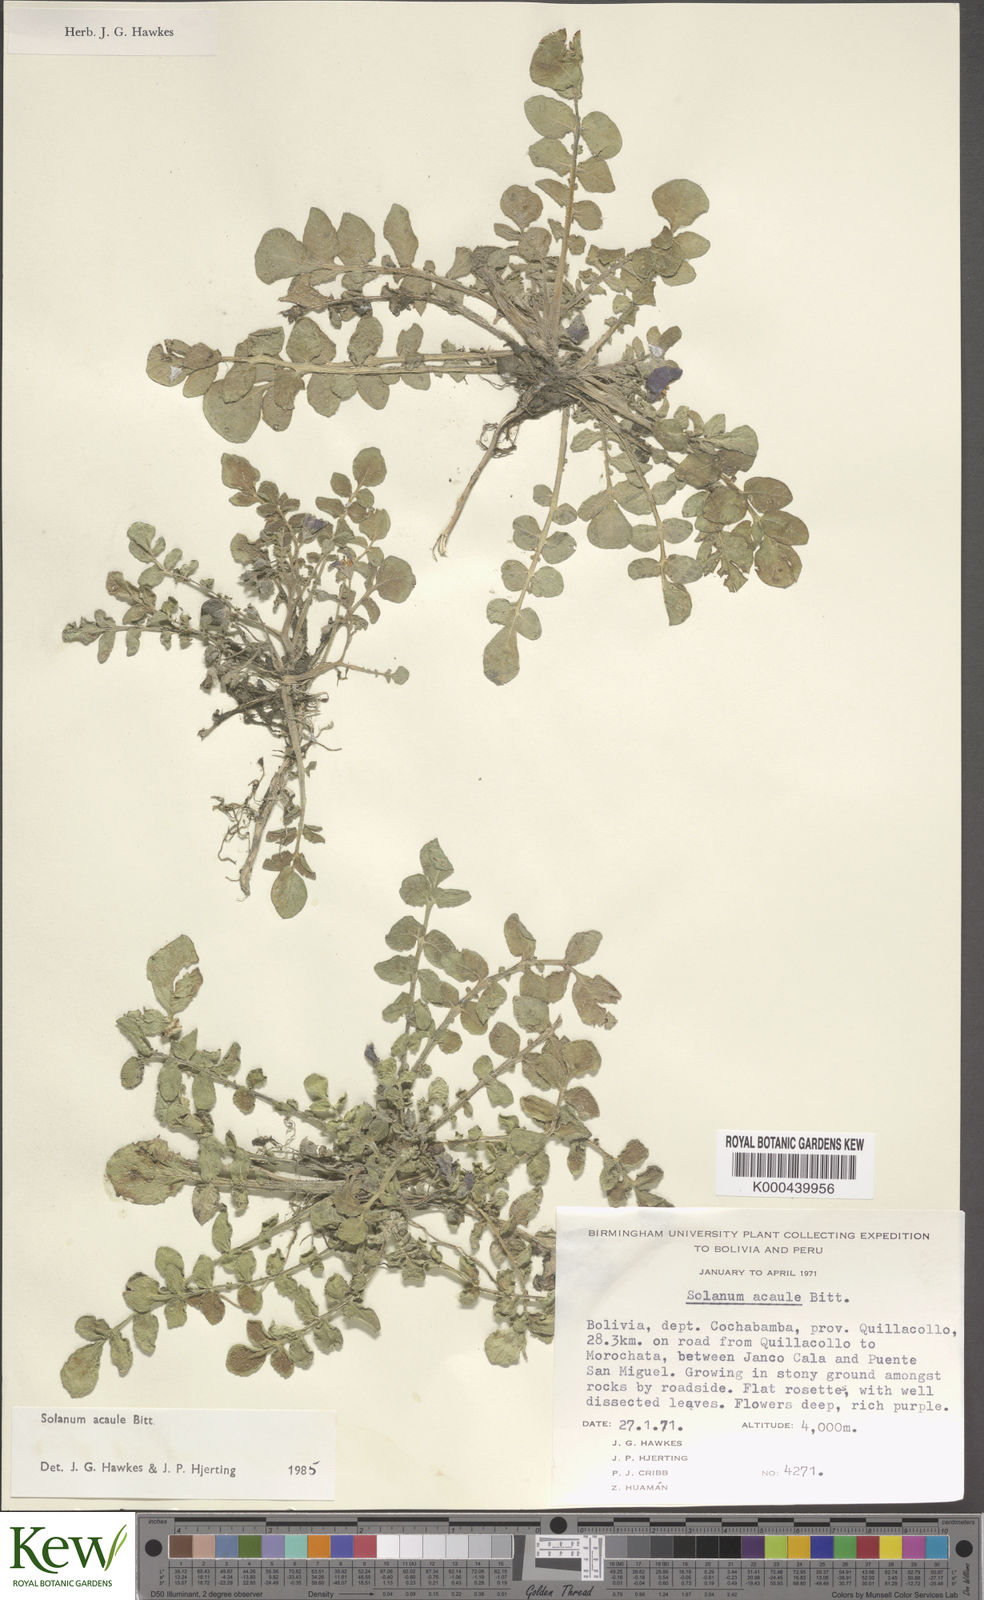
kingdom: Plantae
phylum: Tracheophyta
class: Magnoliopsida
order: Solanales
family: Solanaceae
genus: Solanum
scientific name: Solanum acaule
